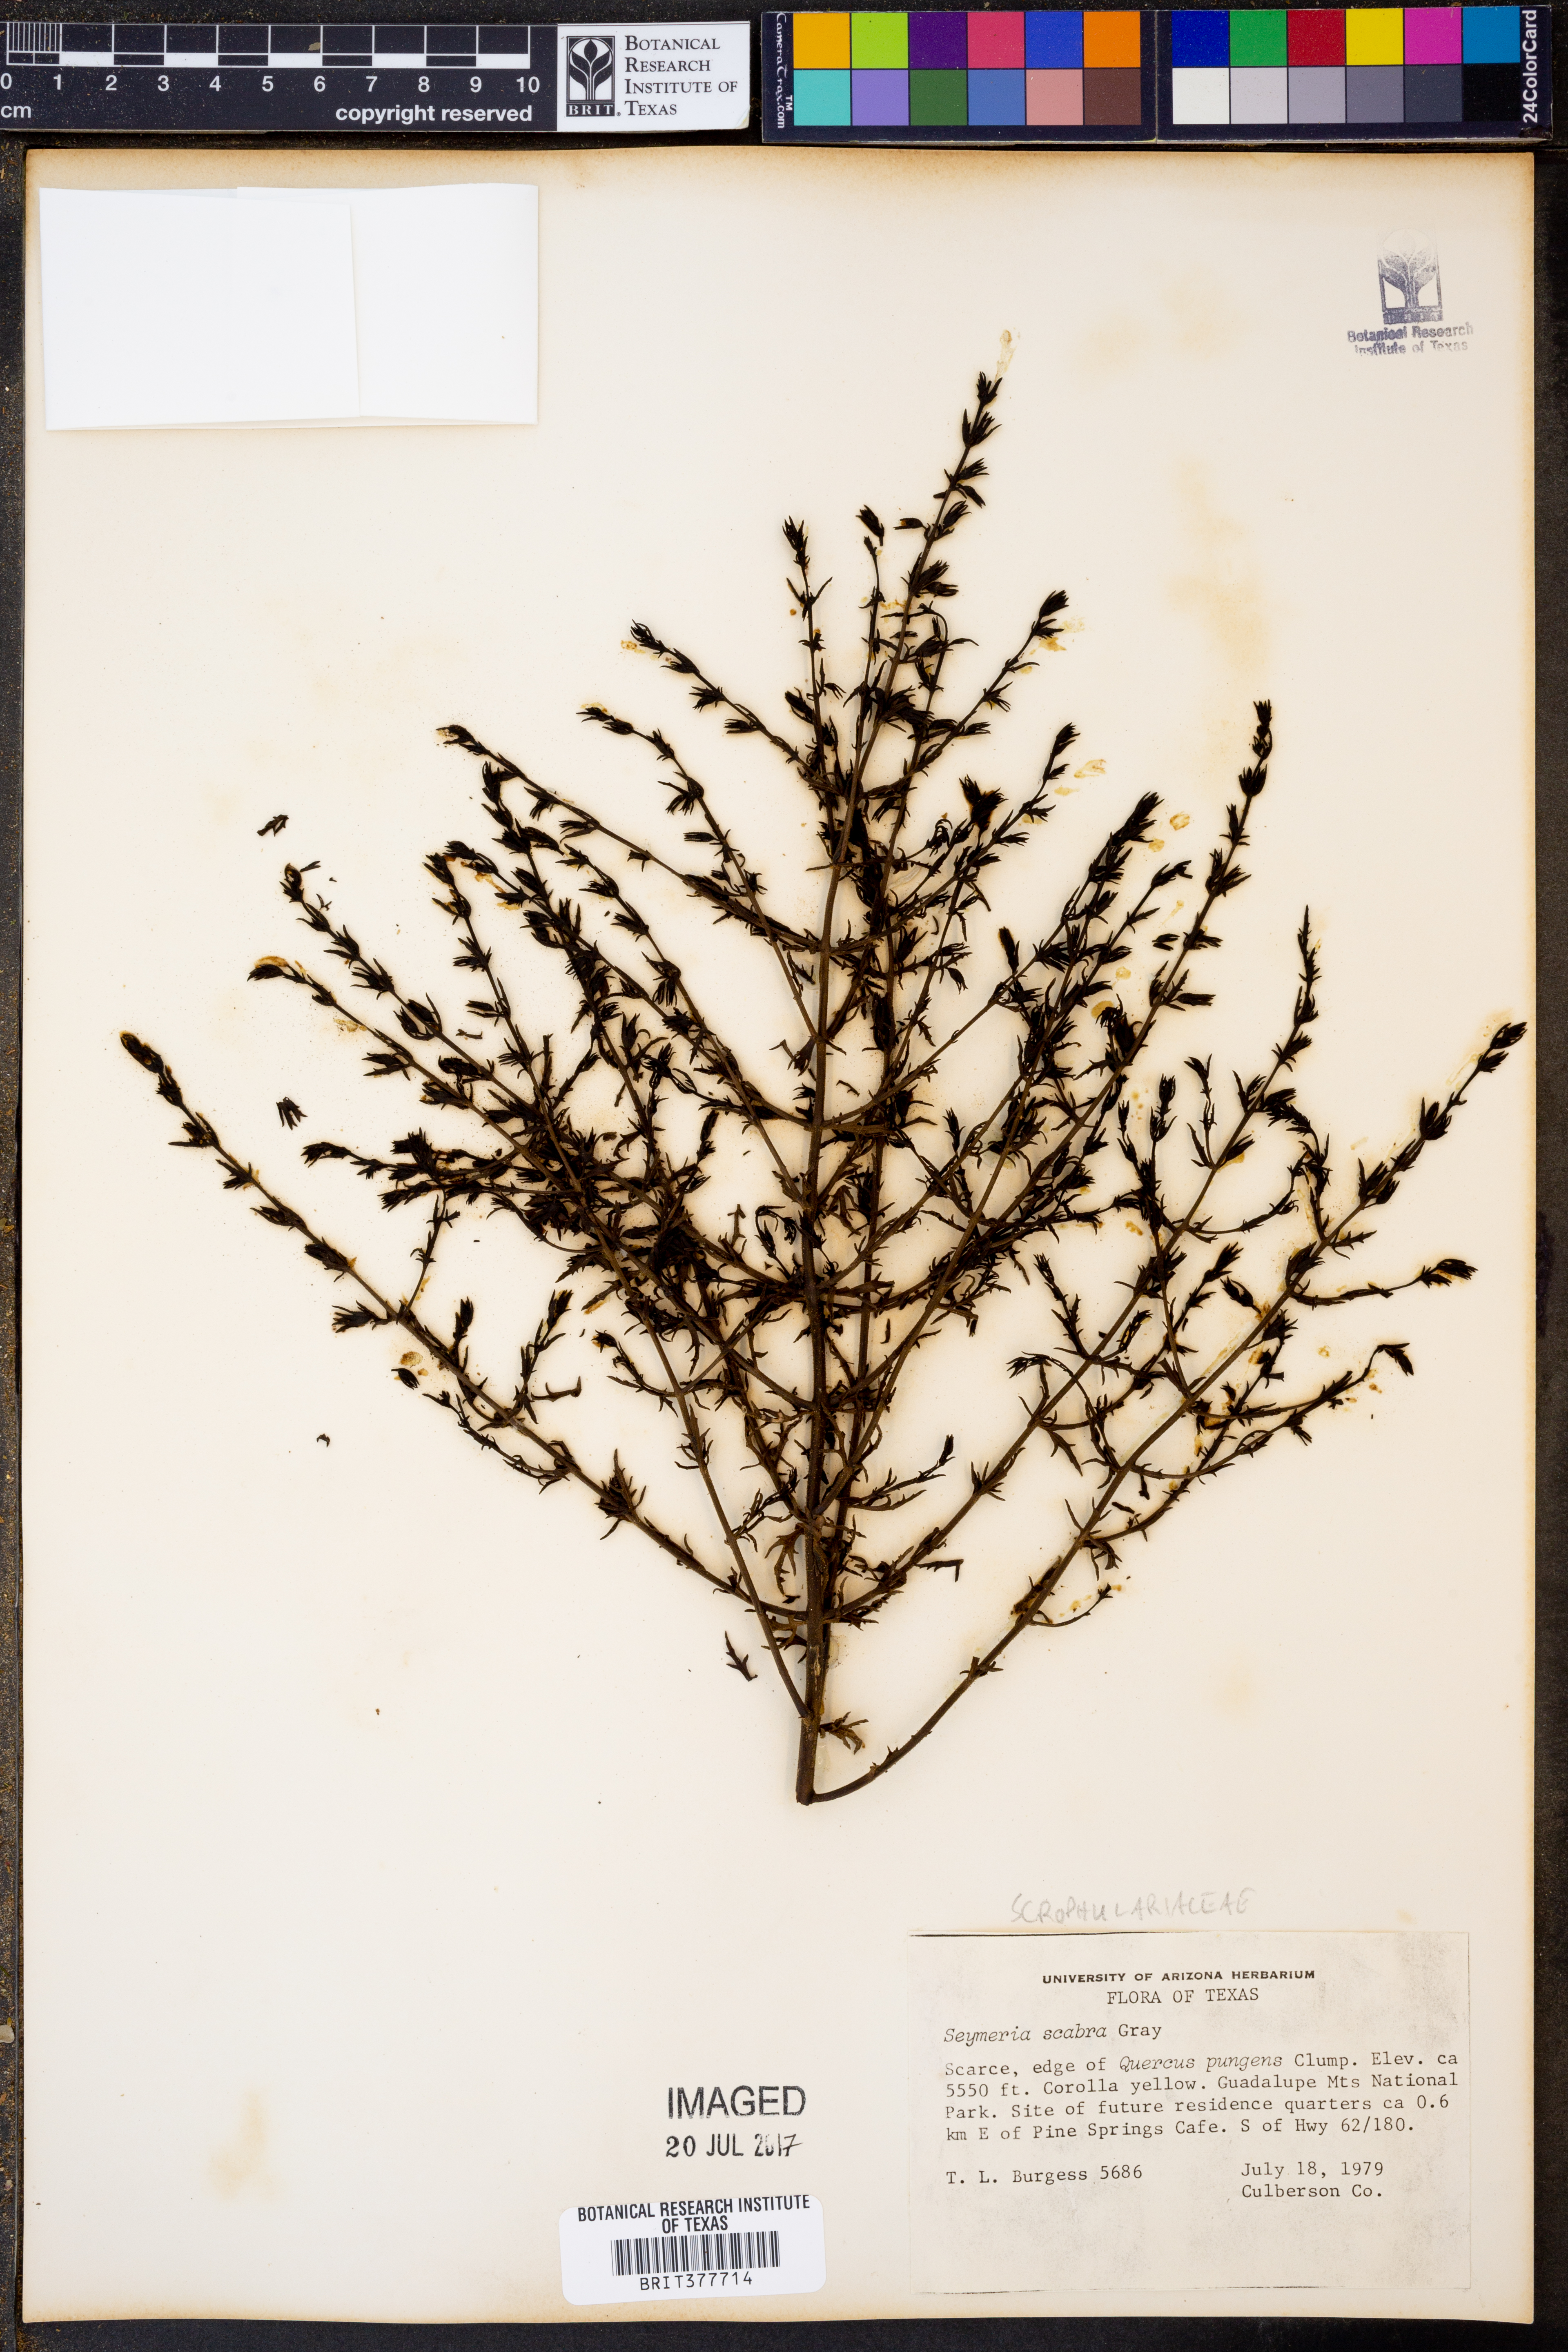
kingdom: Plantae
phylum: Tracheophyta
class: Magnoliopsida
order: Lamiales
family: Orobanchaceae
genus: Seymeria
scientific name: Seymeria scabra
